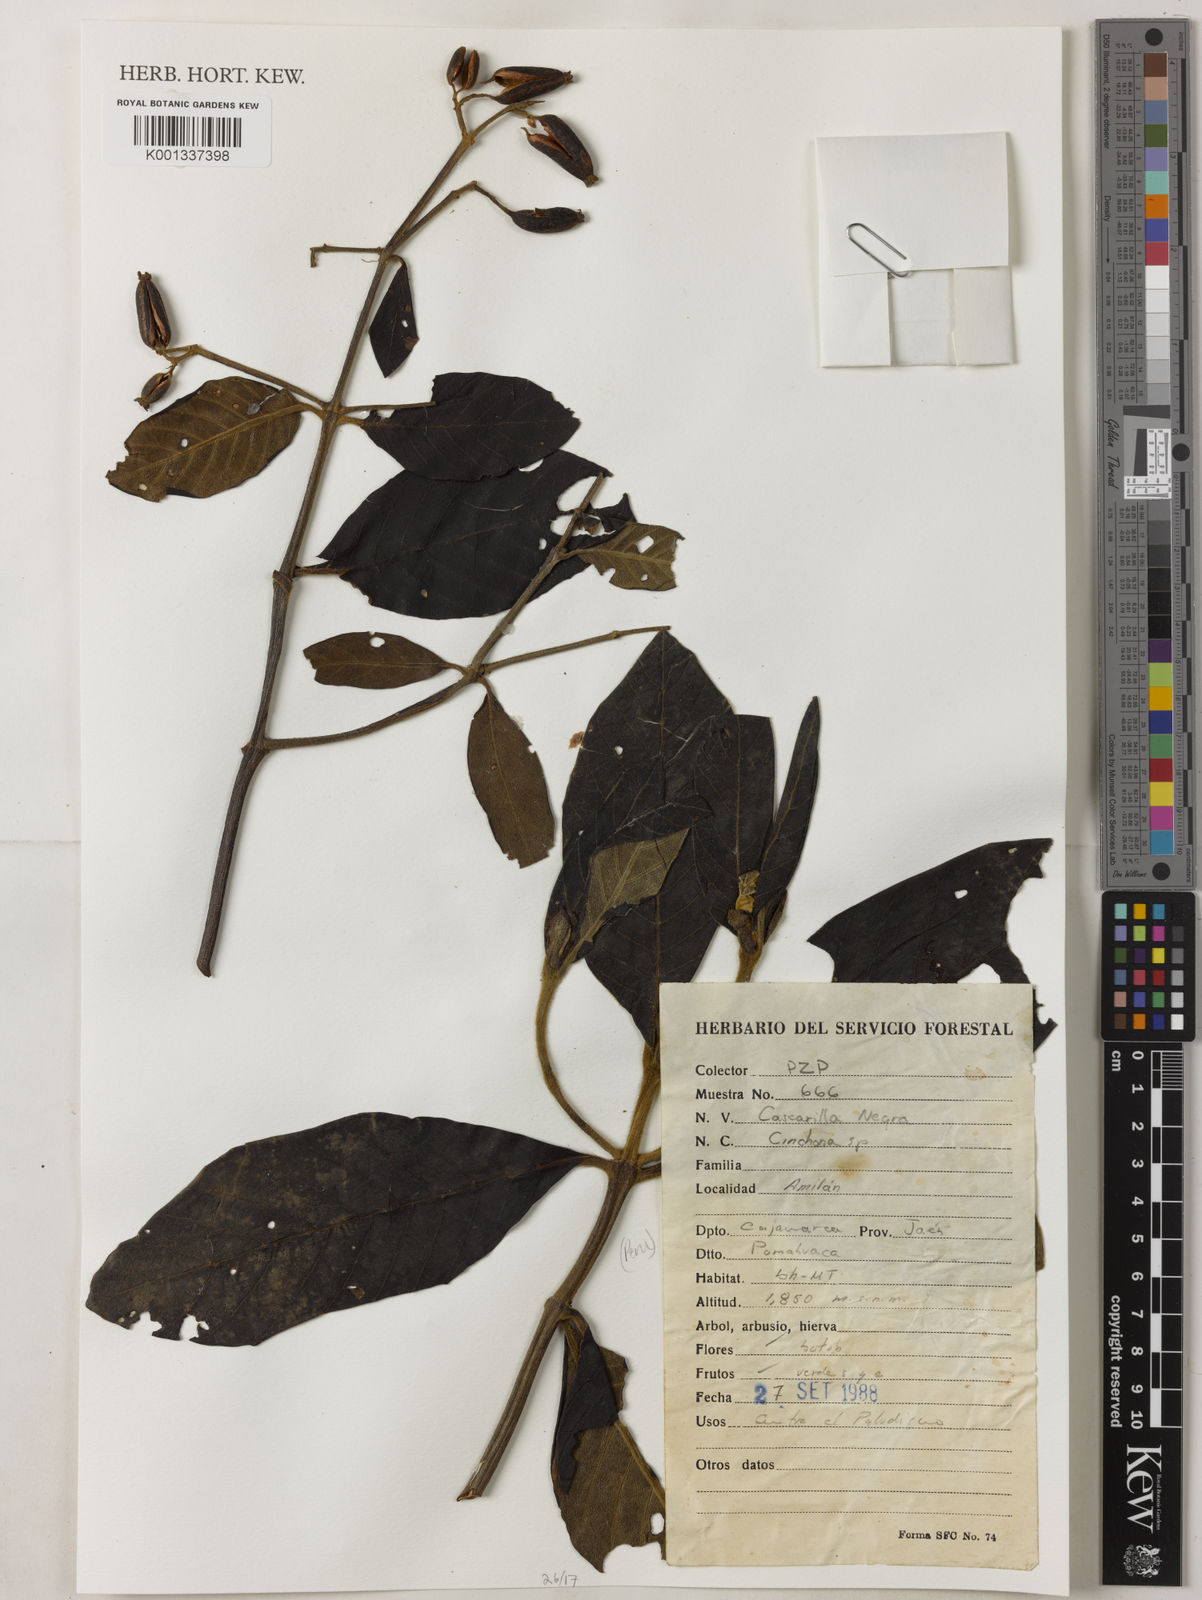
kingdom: Plantae
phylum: Tracheophyta
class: Magnoliopsida
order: Gentianales
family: Rubiaceae
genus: Cinchona
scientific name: Cinchona
